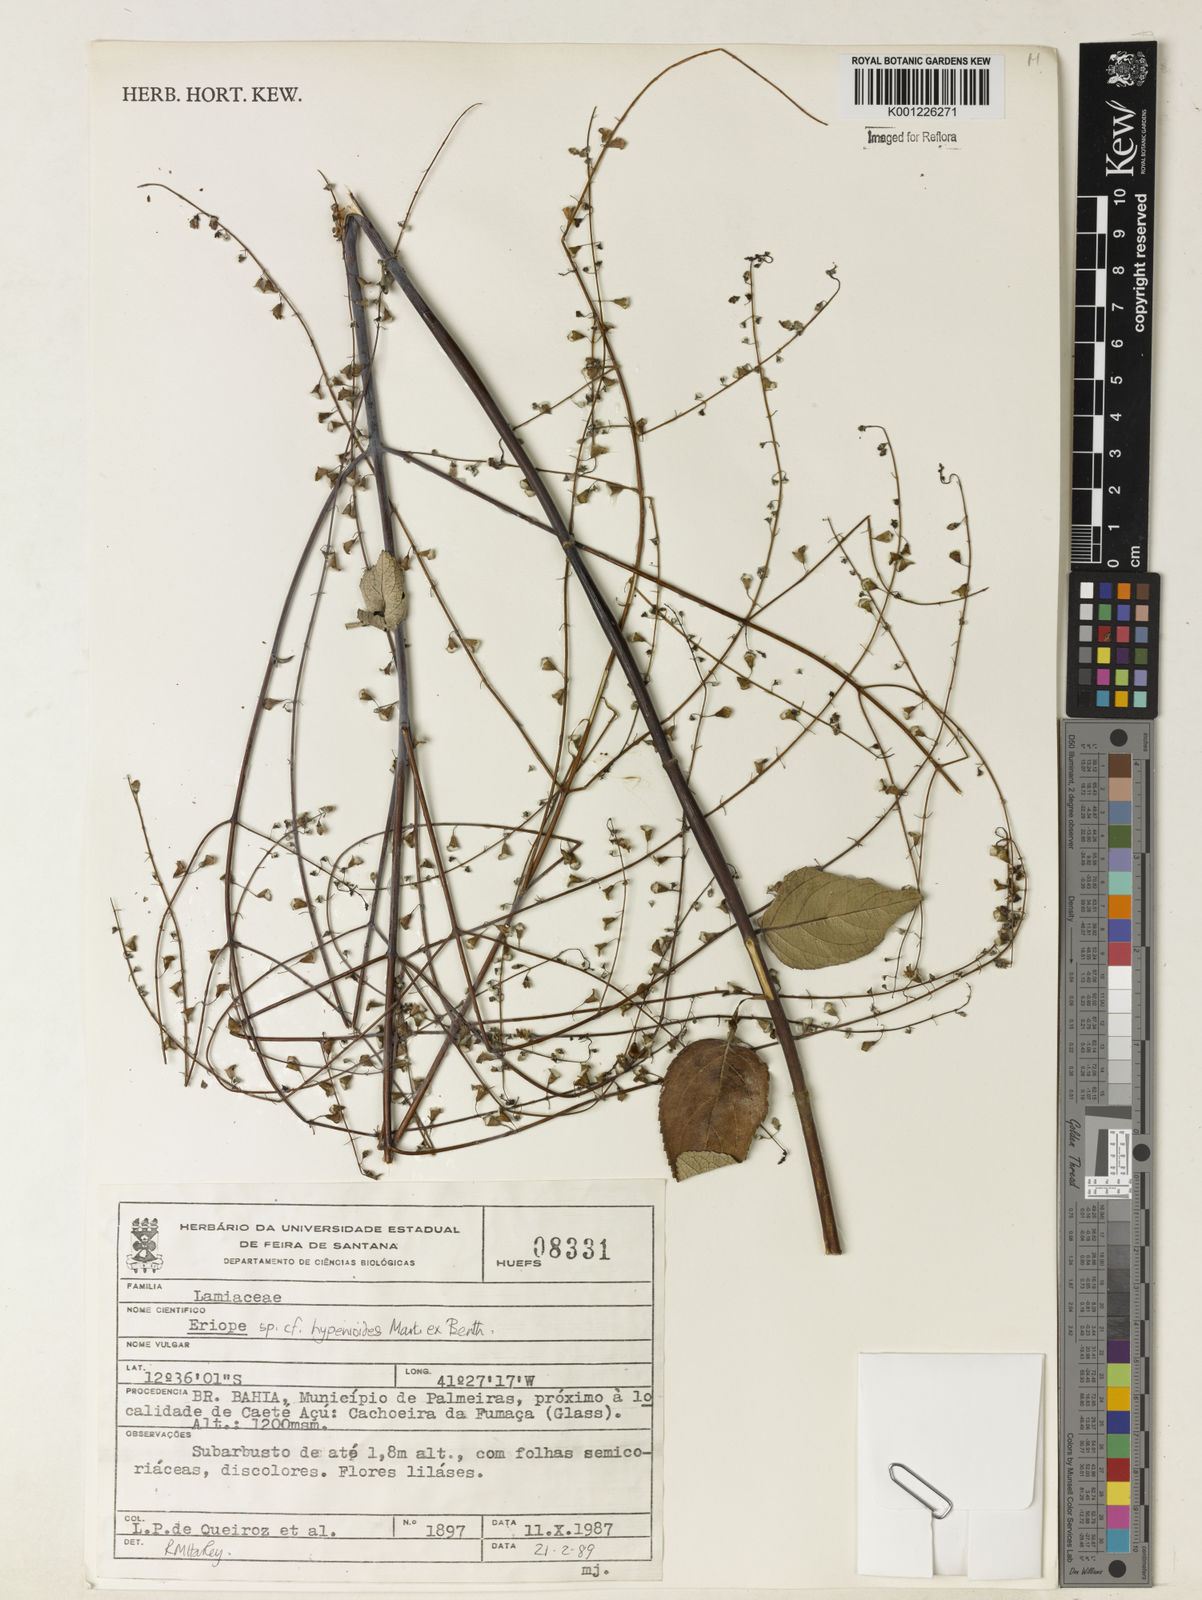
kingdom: Plantae
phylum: Tracheophyta
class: Magnoliopsida
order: Lamiales
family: Lamiaceae
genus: Eriope
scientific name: Eriope hypenioides
